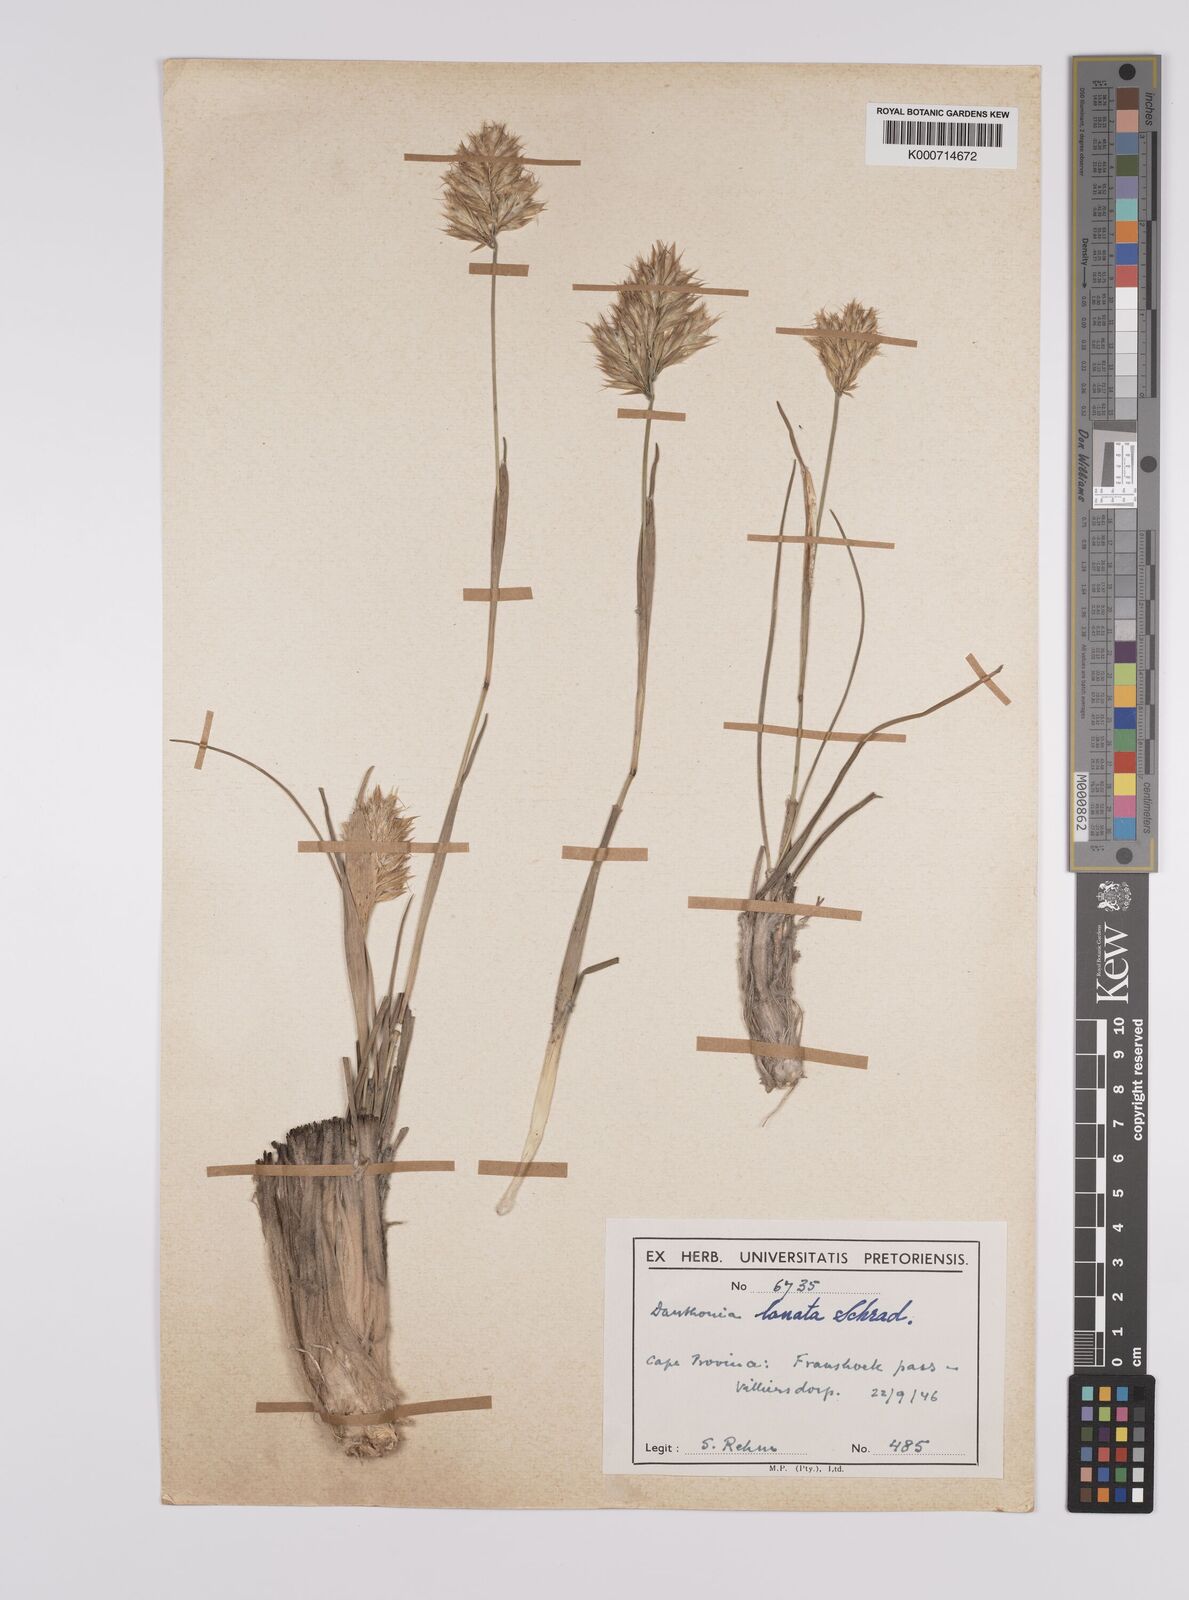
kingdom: Plantae
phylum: Tracheophyta
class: Liliopsida
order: Poales
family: Poaceae
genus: Rytidosperma
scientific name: Rytidosperma
